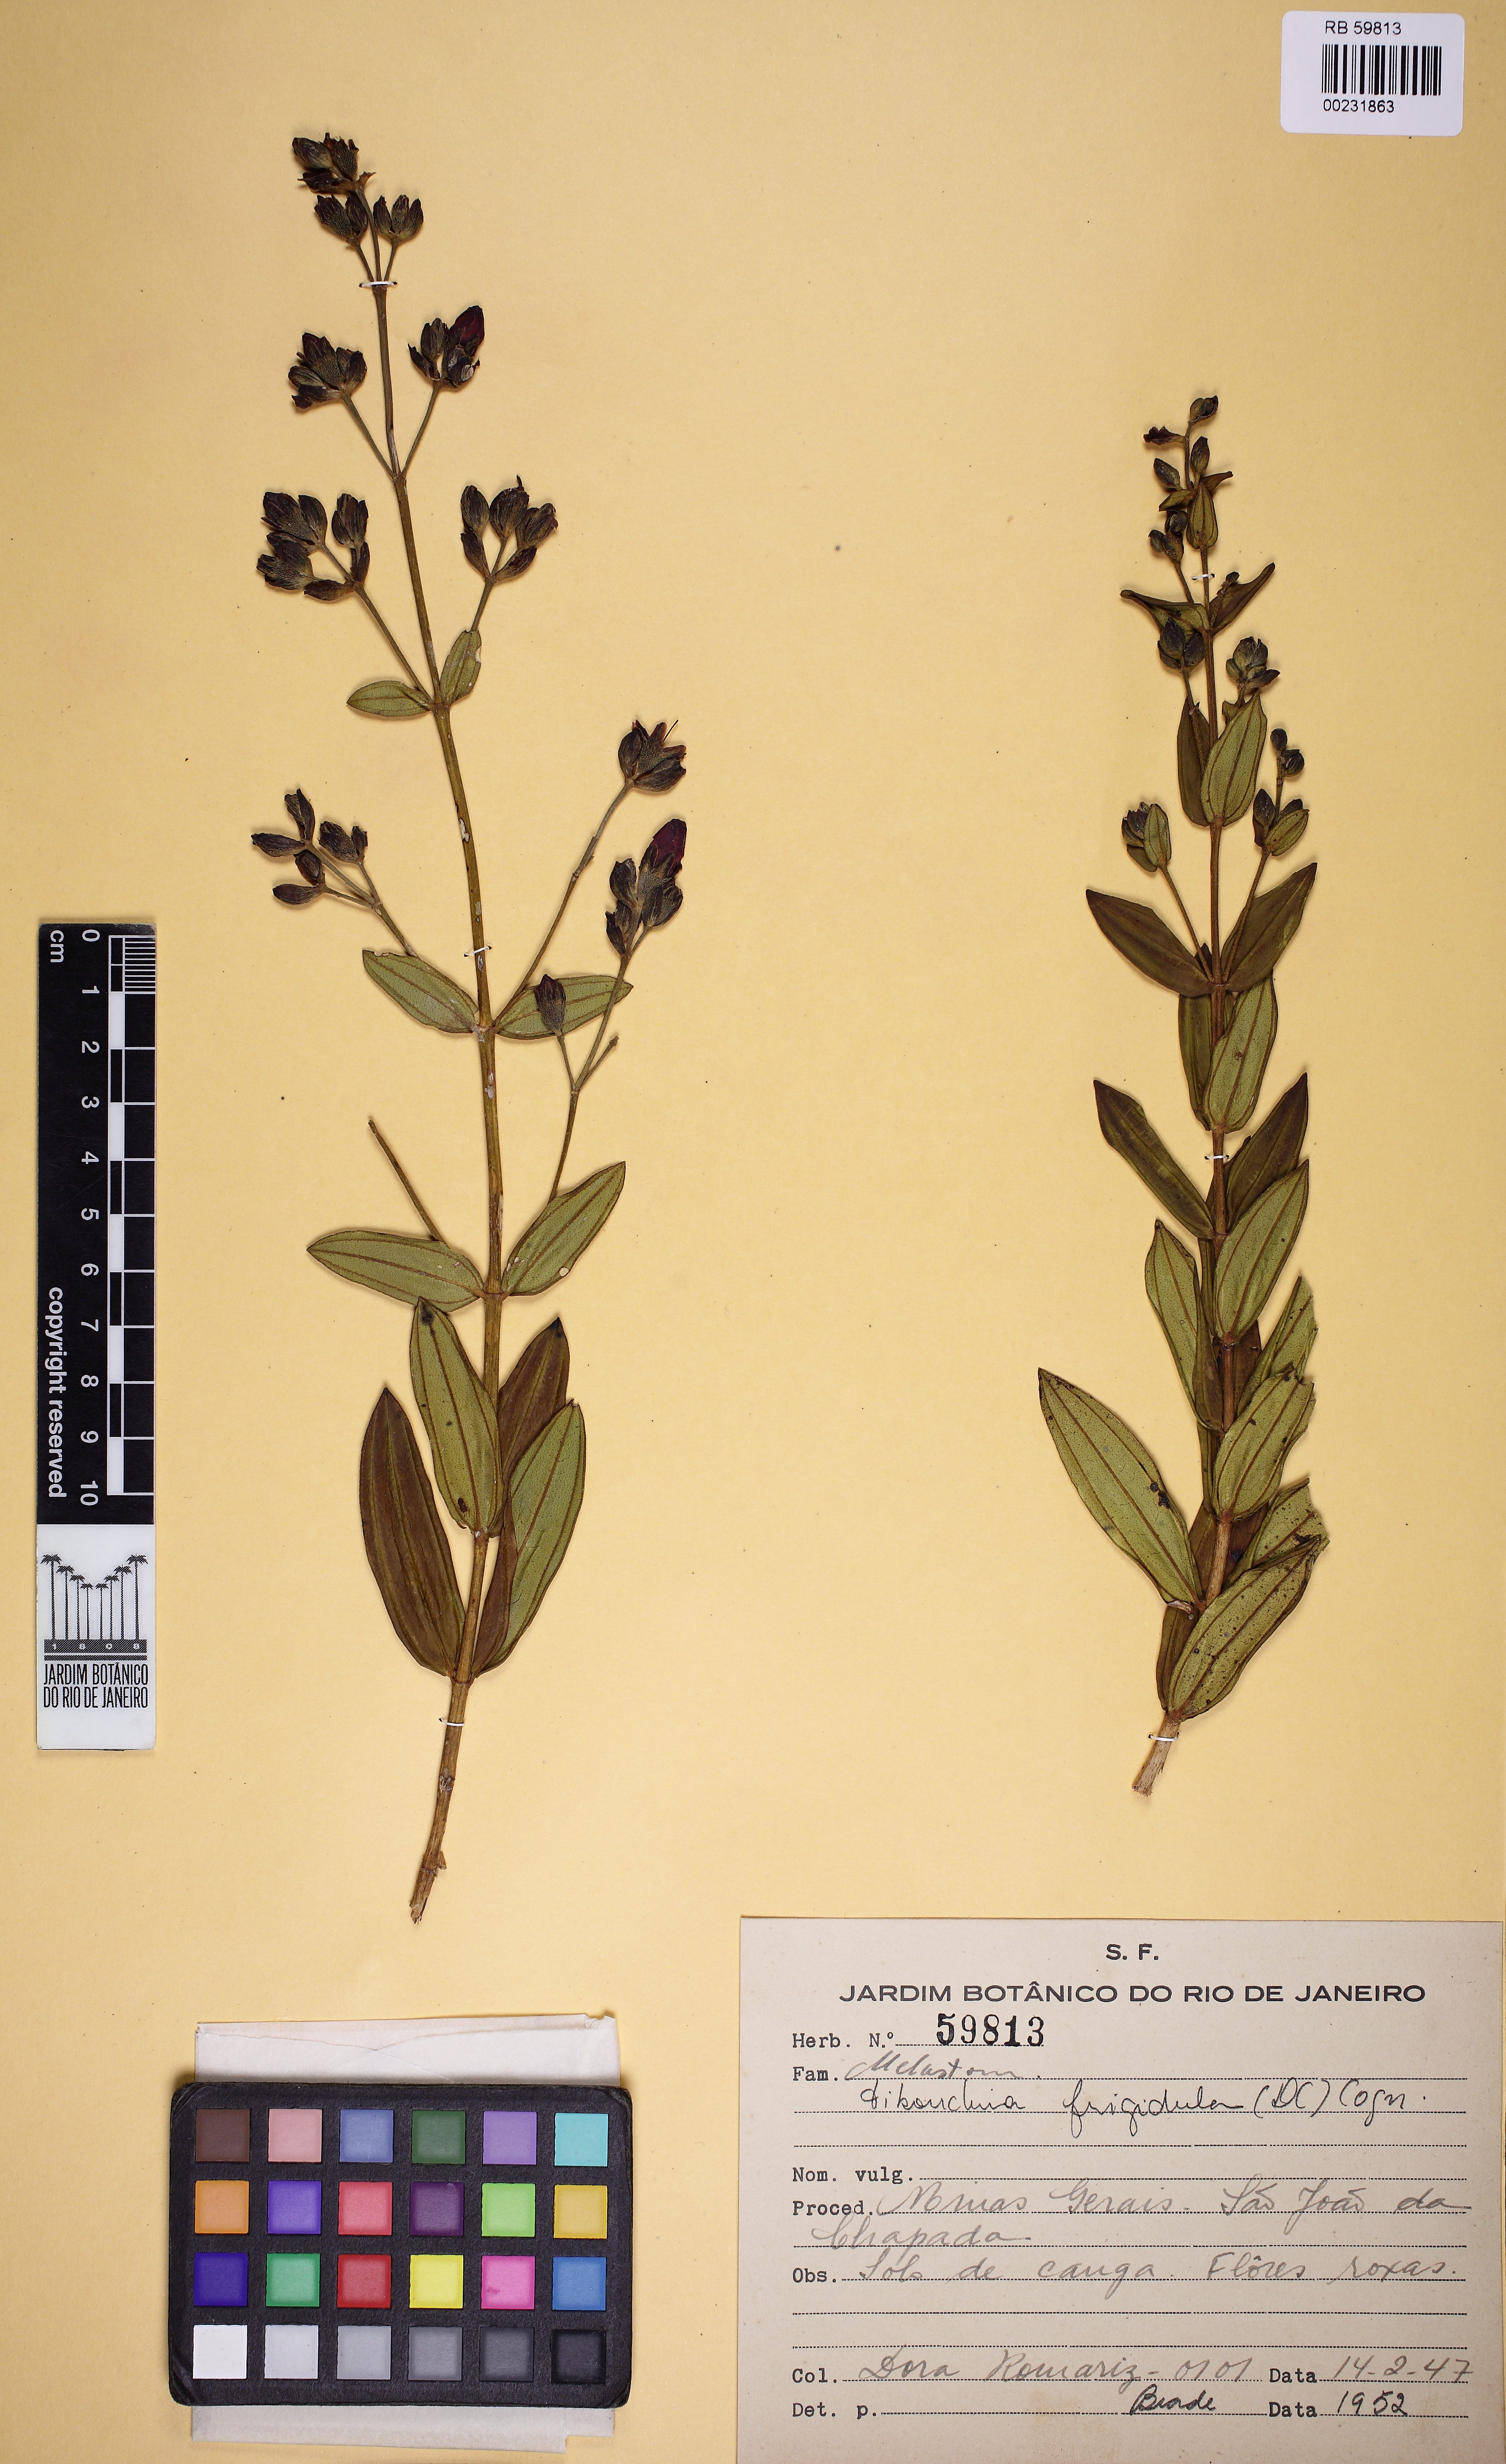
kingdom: Plantae
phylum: Tracheophyta
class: Magnoliopsida
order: Myrtales
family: Melastomataceae
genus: Pleroma
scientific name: Pleroma martiusianum
